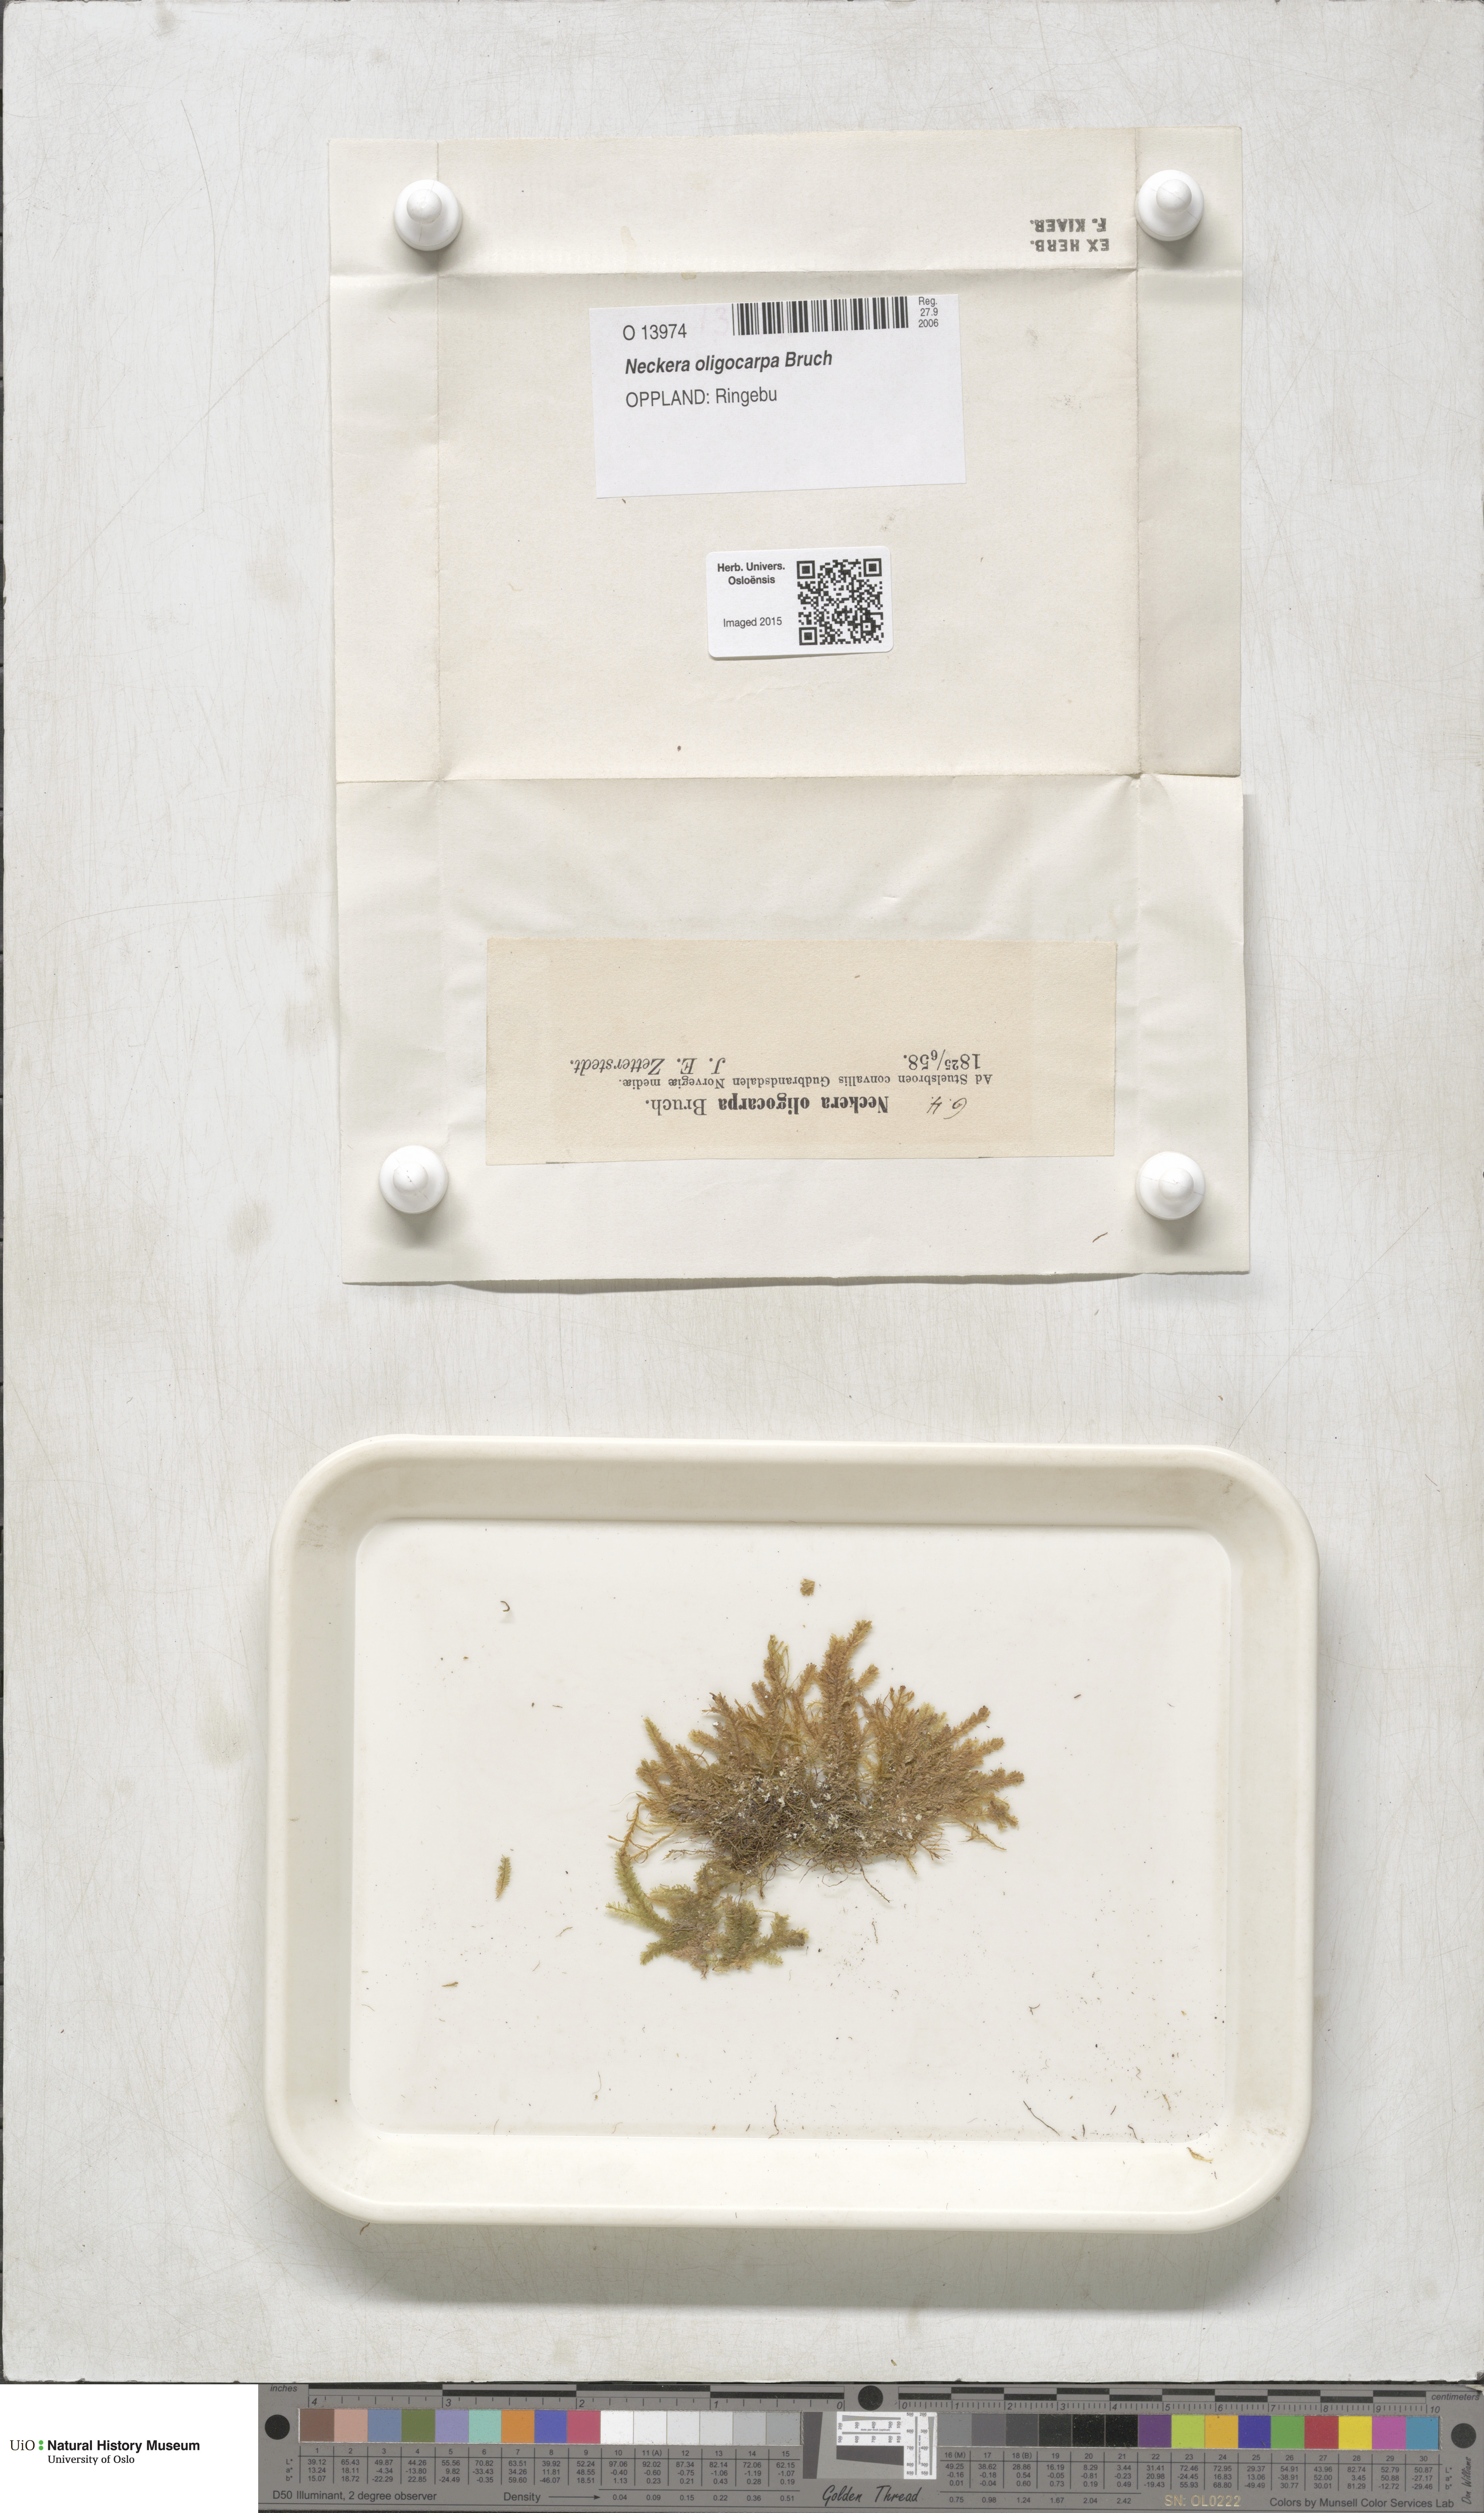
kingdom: Plantae
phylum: Bryophyta
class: Bryopsida
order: Hypnales
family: Neckeraceae
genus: Neckera
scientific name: Neckera oligocarpa
